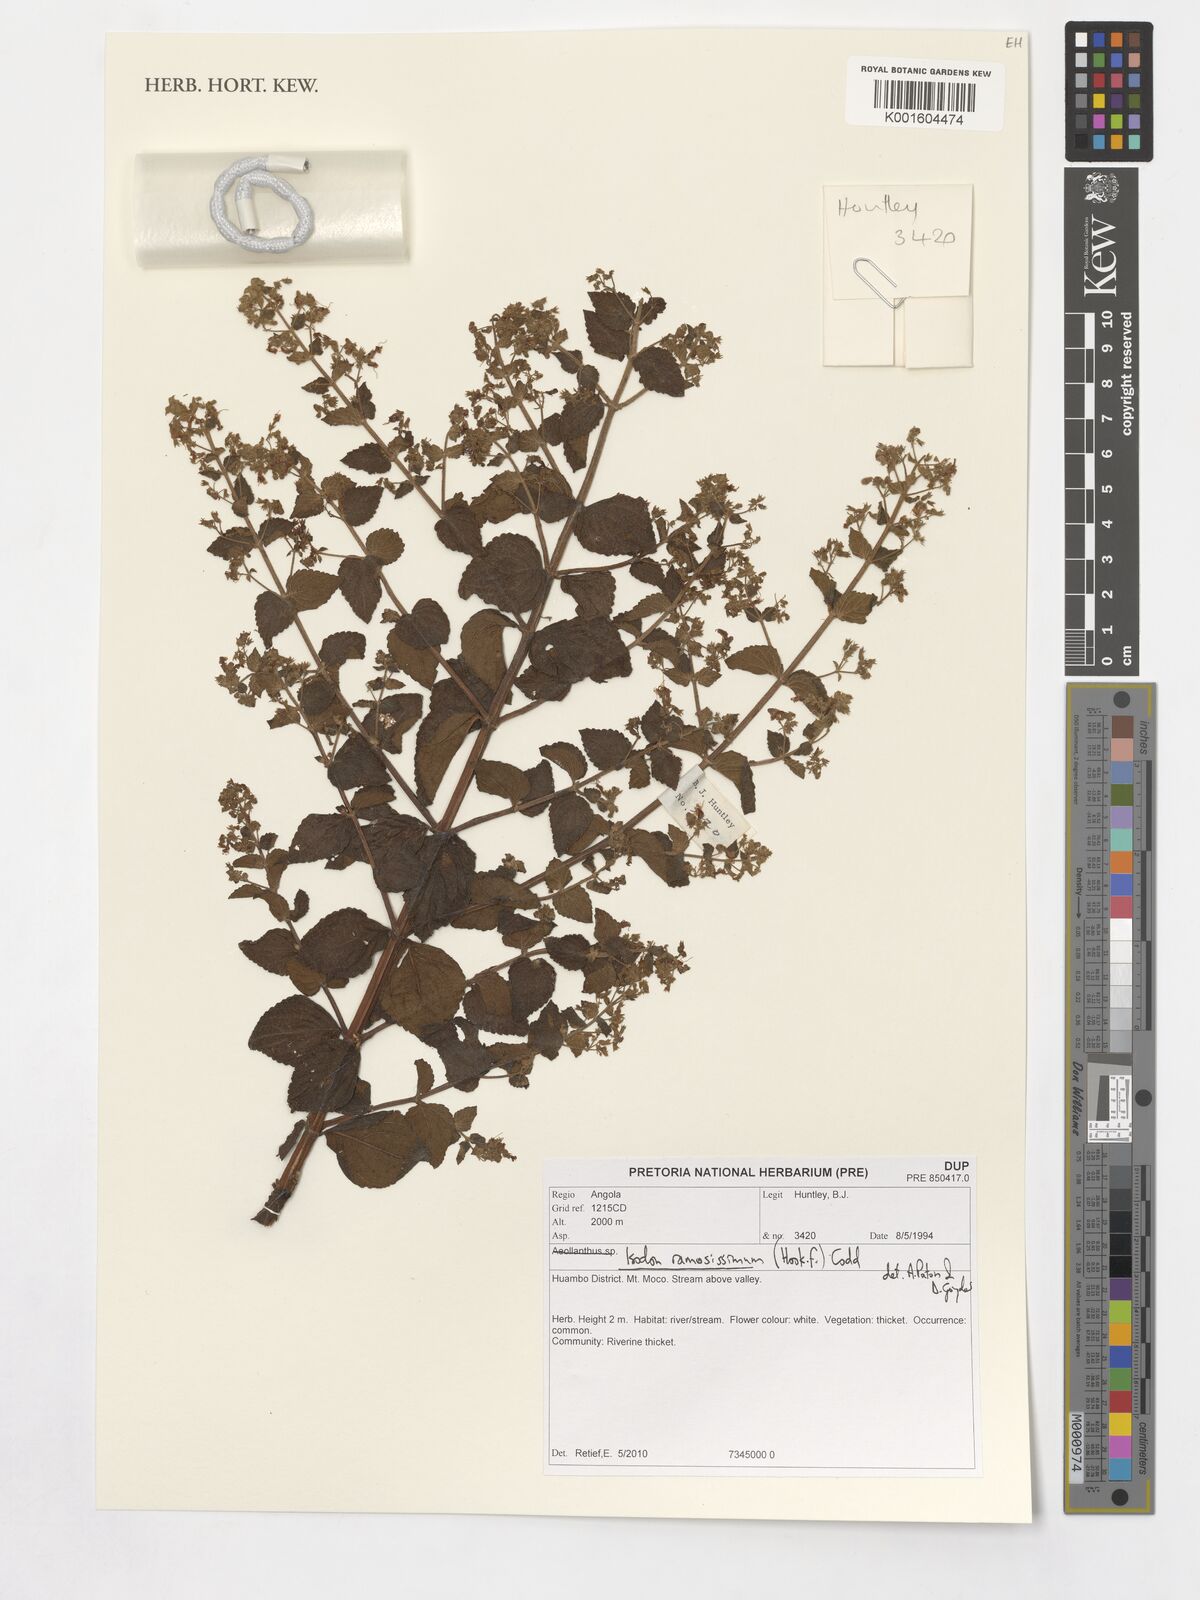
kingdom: Plantae
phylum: Tracheophyta
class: Magnoliopsida
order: Lamiales
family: Lamiaceae
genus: Isodon
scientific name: Isodon ramosissimus
